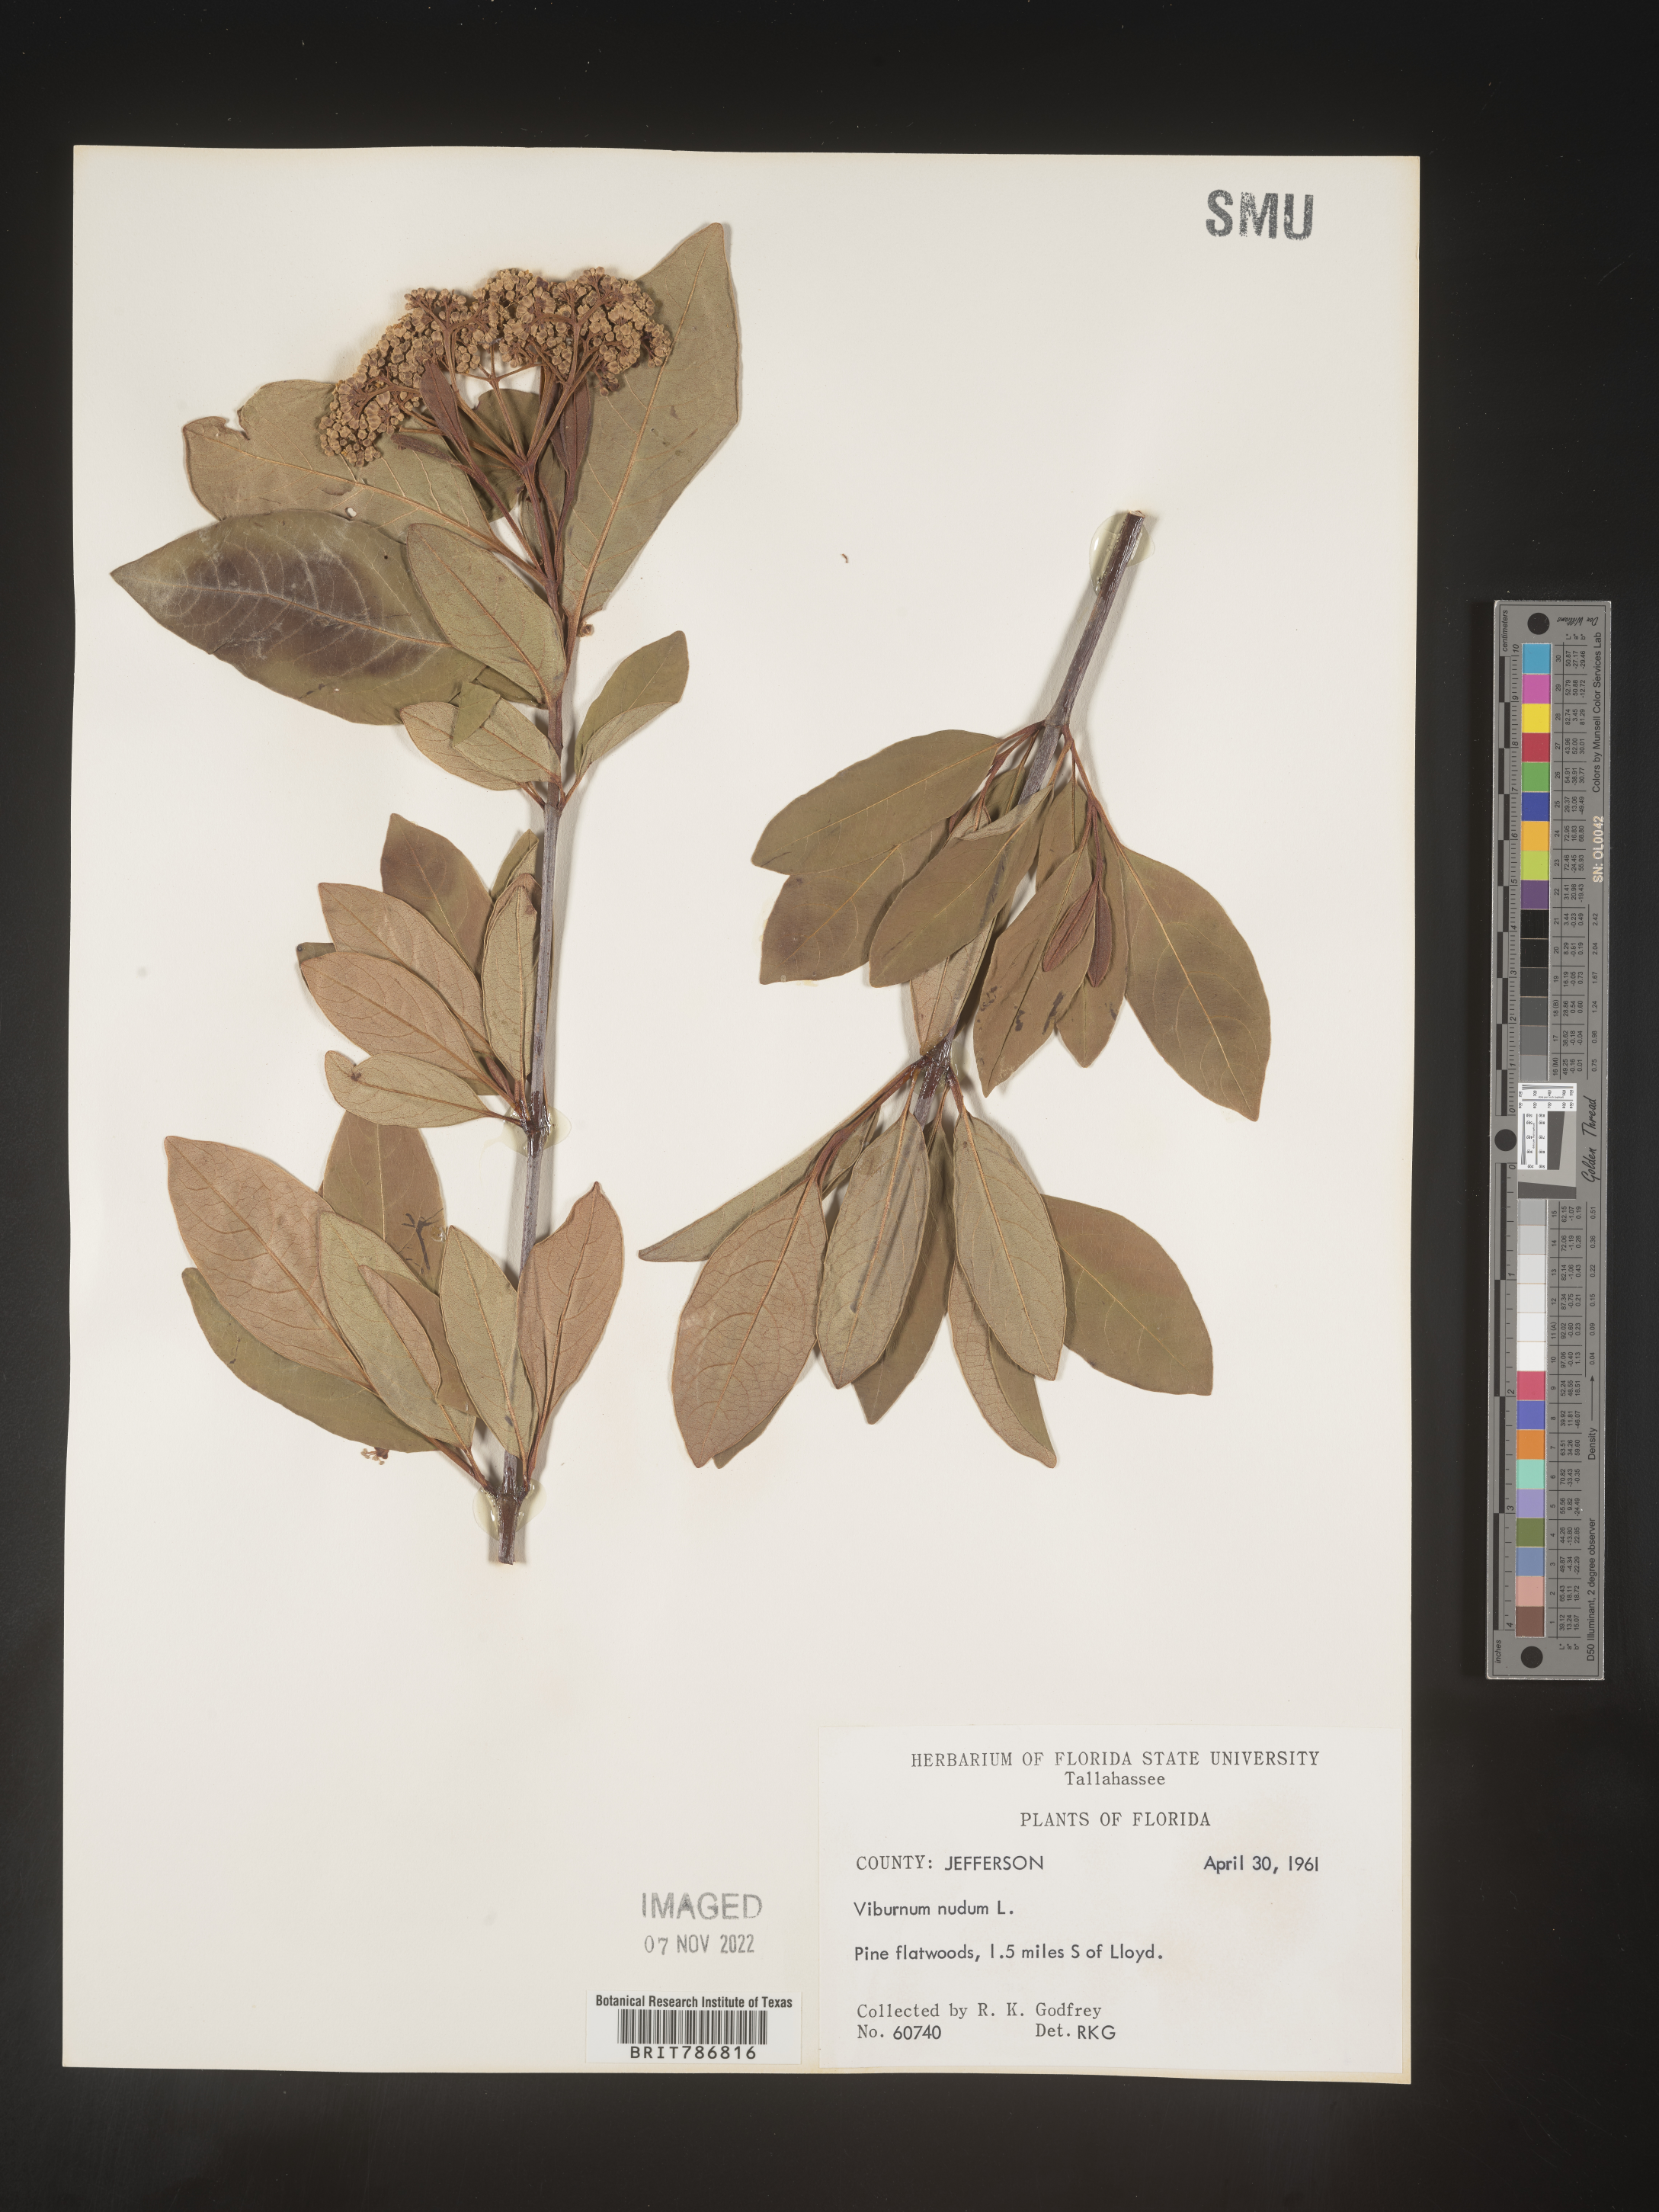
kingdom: Plantae
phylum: Tracheophyta
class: Magnoliopsida
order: Dipsacales
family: Viburnaceae
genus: Viburnum
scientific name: Viburnum nudum
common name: Possum haw
